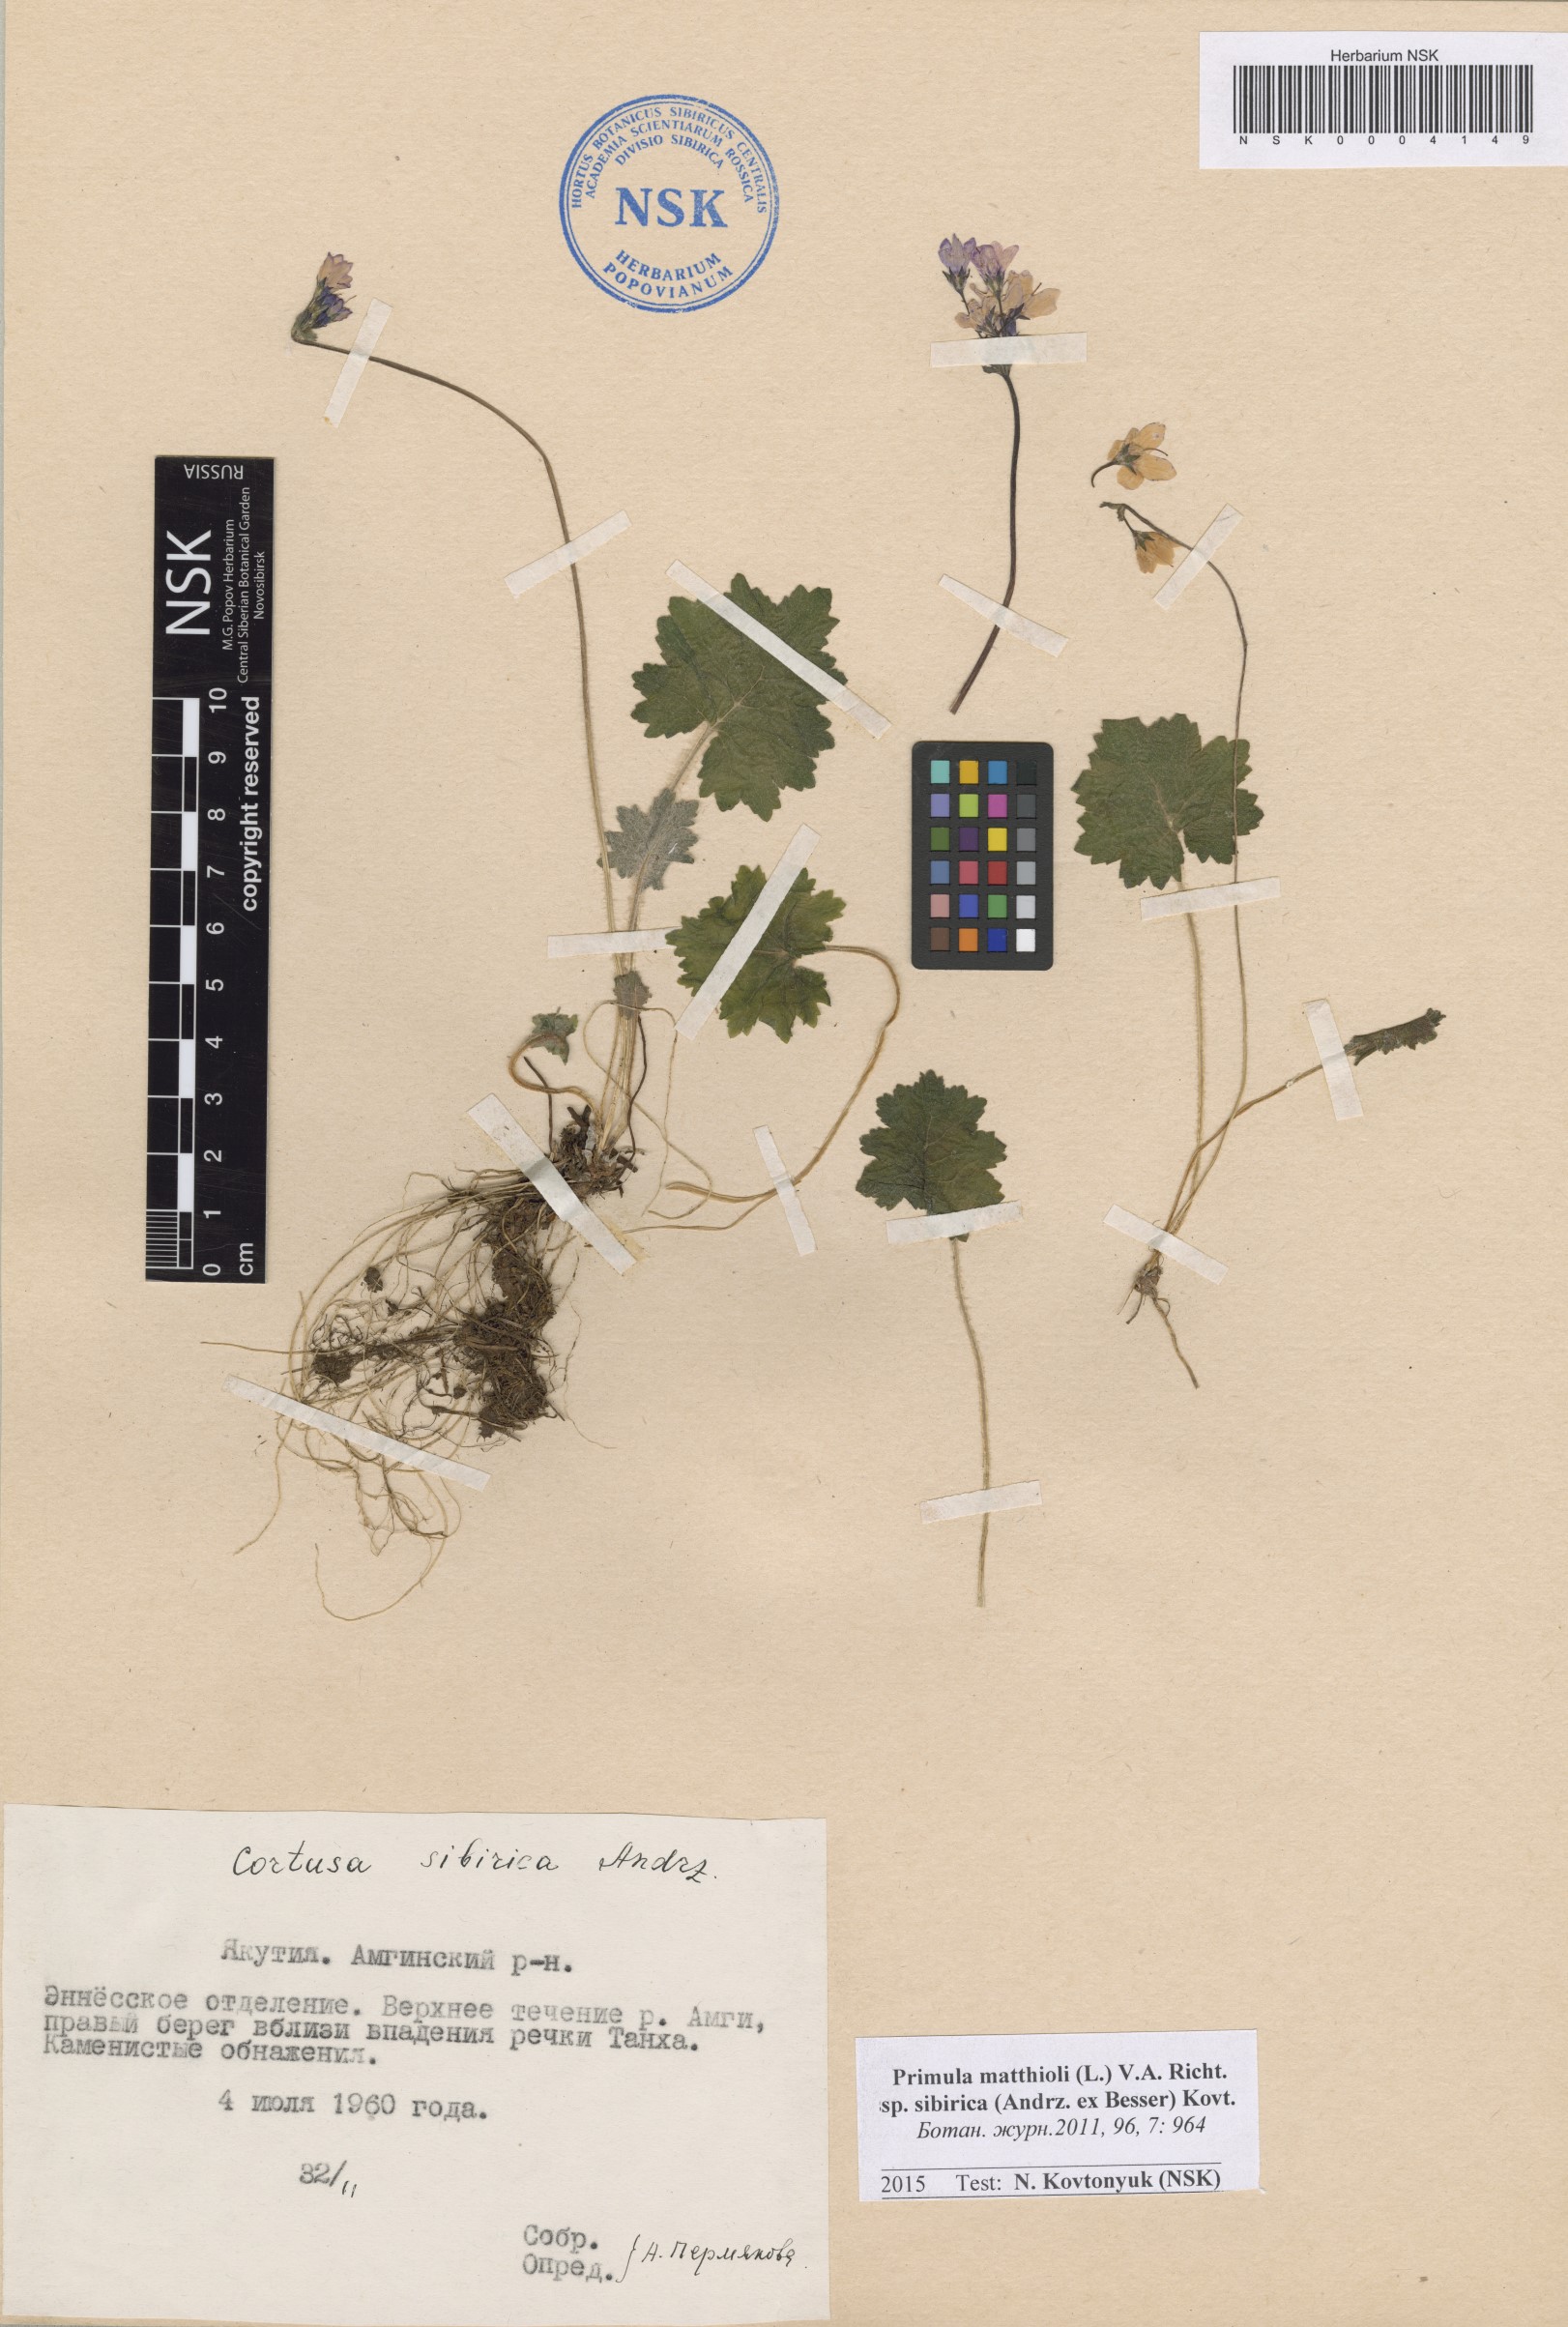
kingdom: Plantae
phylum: Tracheophyta
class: Magnoliopsida
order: Ericales
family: Primulaceae
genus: Primula
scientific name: Primula matthioli
